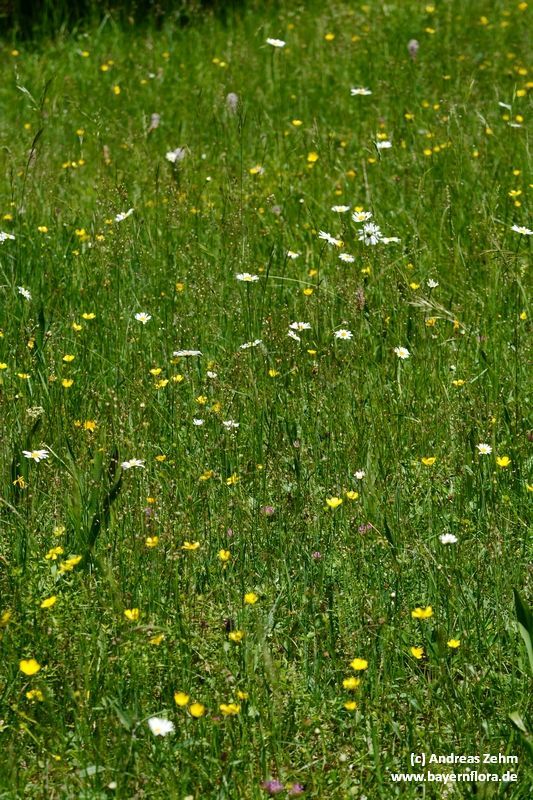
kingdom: Plantae
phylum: Tracheophyta
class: Liliopsida
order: Poales
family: Poaceae
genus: Briza
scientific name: Briza media
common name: Quaking grass
